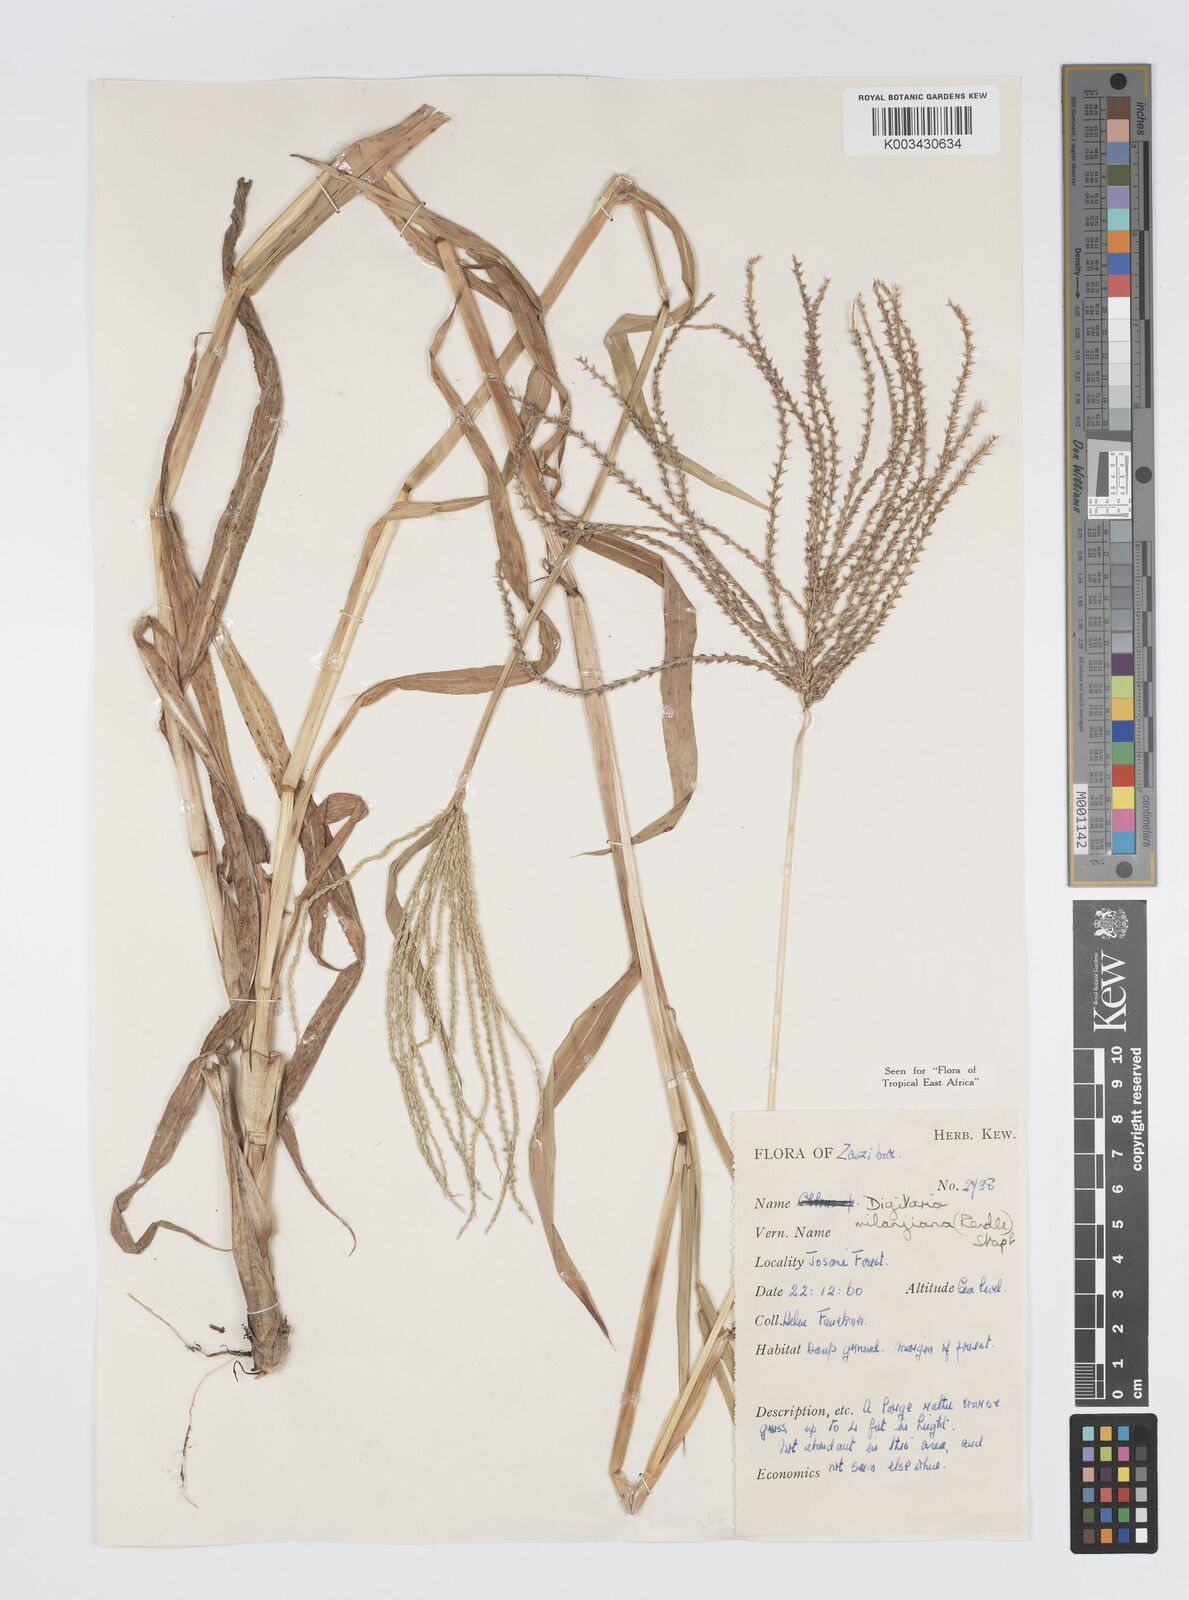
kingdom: Plantae
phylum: Tracheophyta
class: Liliopsida
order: Poales
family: Poaceae
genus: Digitaria
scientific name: Digitaria milanjiana
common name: Madagascar crabgrass
